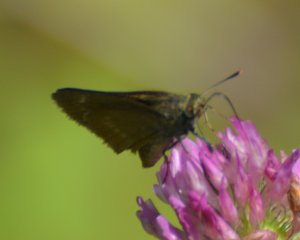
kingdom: Animalia
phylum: Arthropoda
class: Insecta
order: Lepidoptera
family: Hesperiidae
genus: Euphyes
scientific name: Euphyes vestris
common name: Dun Skipper
